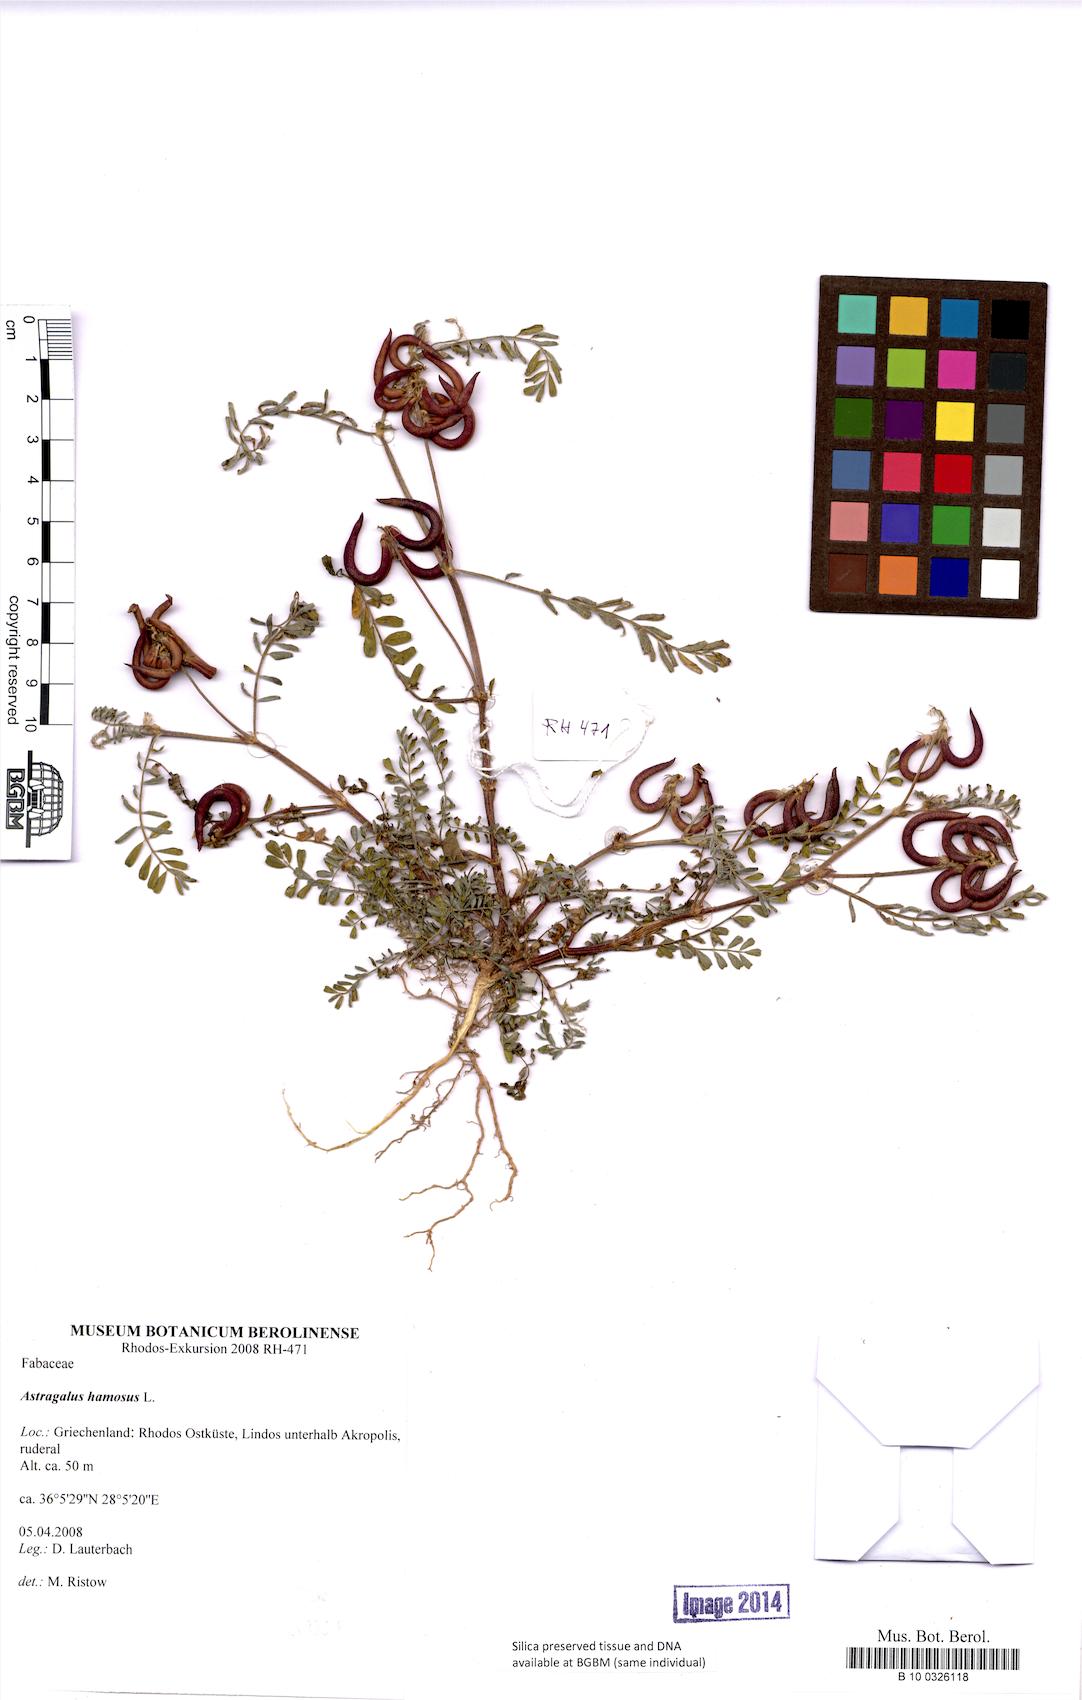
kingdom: Plantae
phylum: Tracheophyta
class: Magnoliopsida
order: Fabales
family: Fabaceae
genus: Astragalus
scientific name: Astragalus hamosus
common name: European milkvetch
